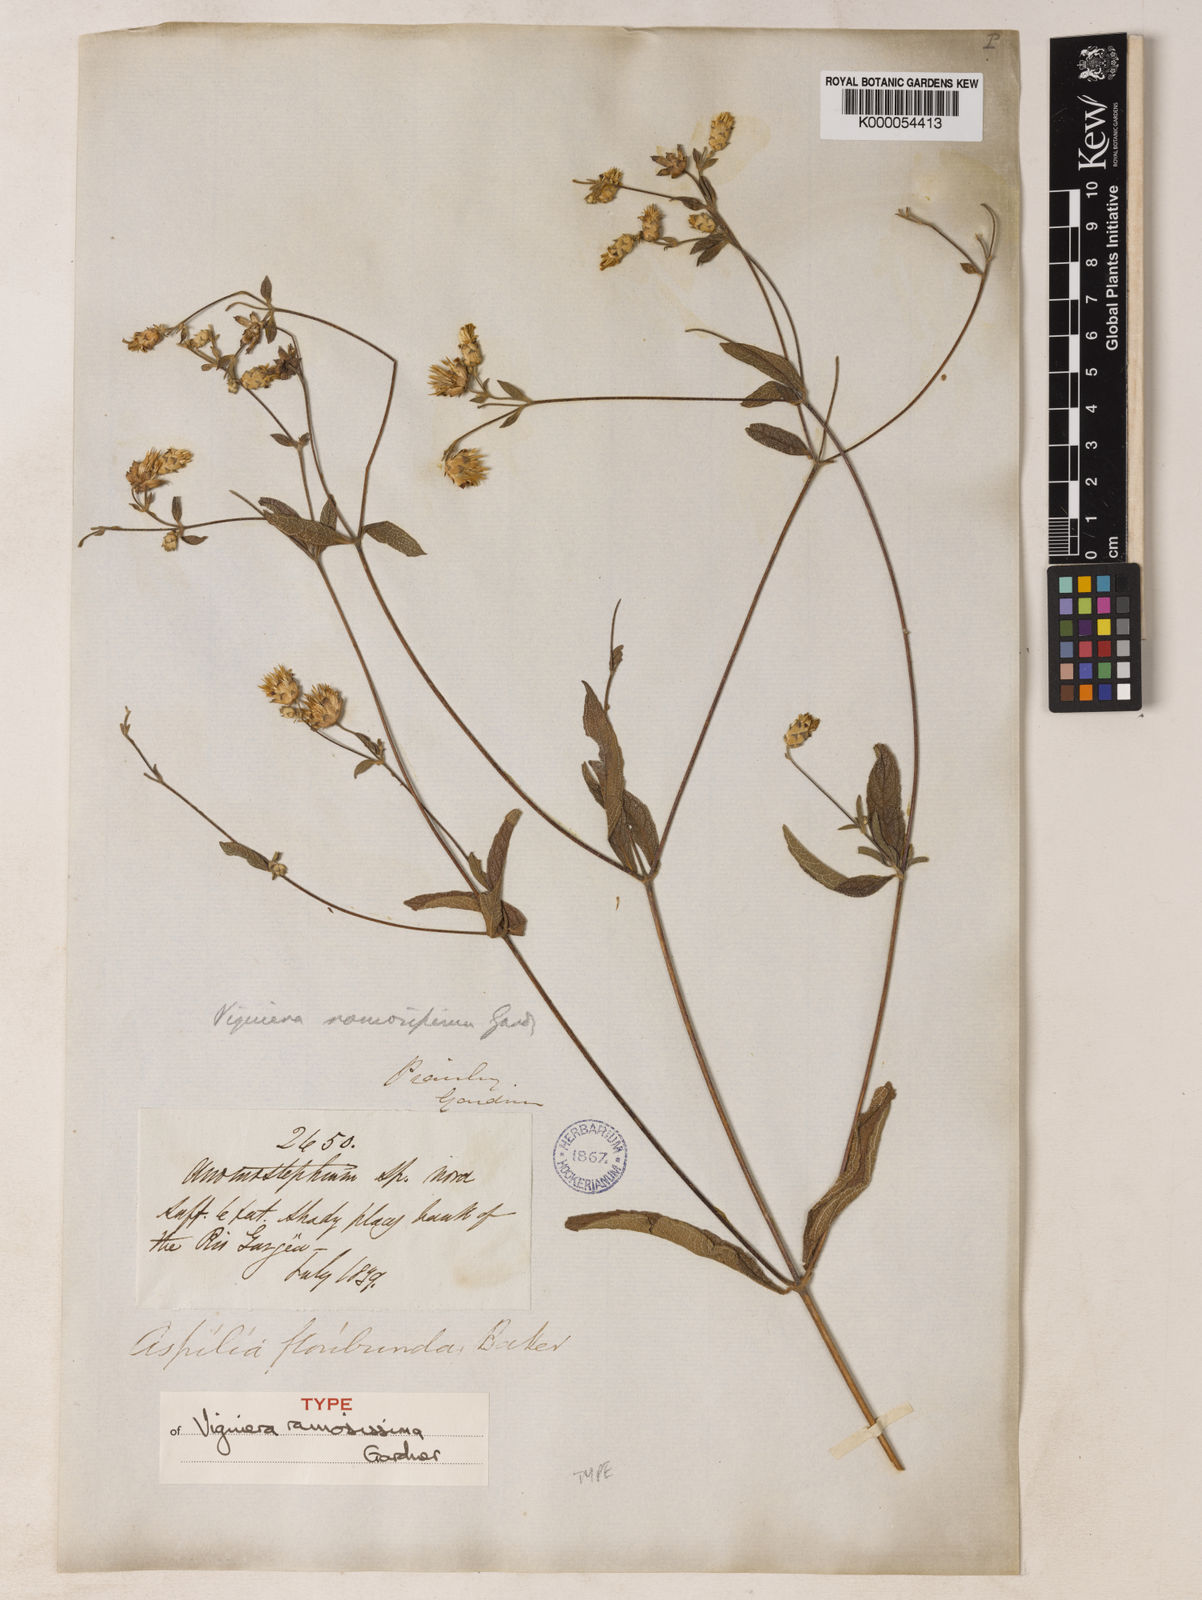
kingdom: Plantae
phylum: Tracheophyta
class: Magnoliopsida
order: Asterales
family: Asteraceae
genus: Wedelia
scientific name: Wedelia floribunda
